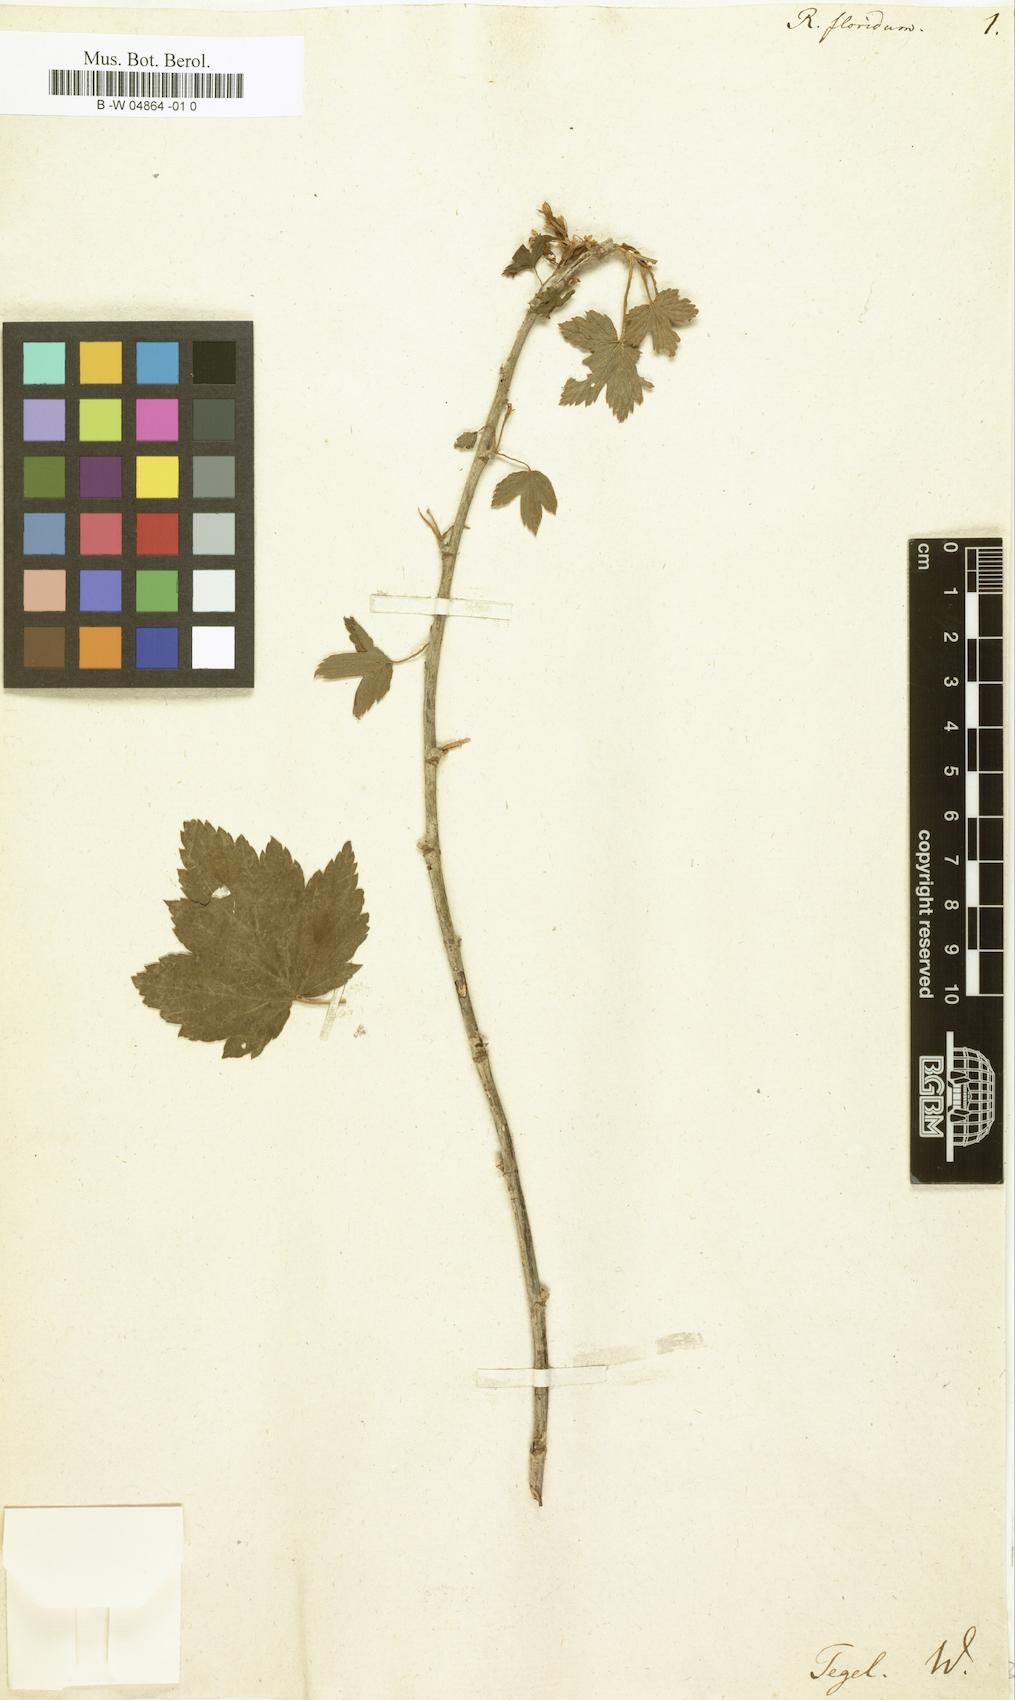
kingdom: Plantae
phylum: Tracheophyta
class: Magnoliopsida
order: Saxifragales
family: Grossulariaceae
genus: Ribes
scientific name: Ribes
